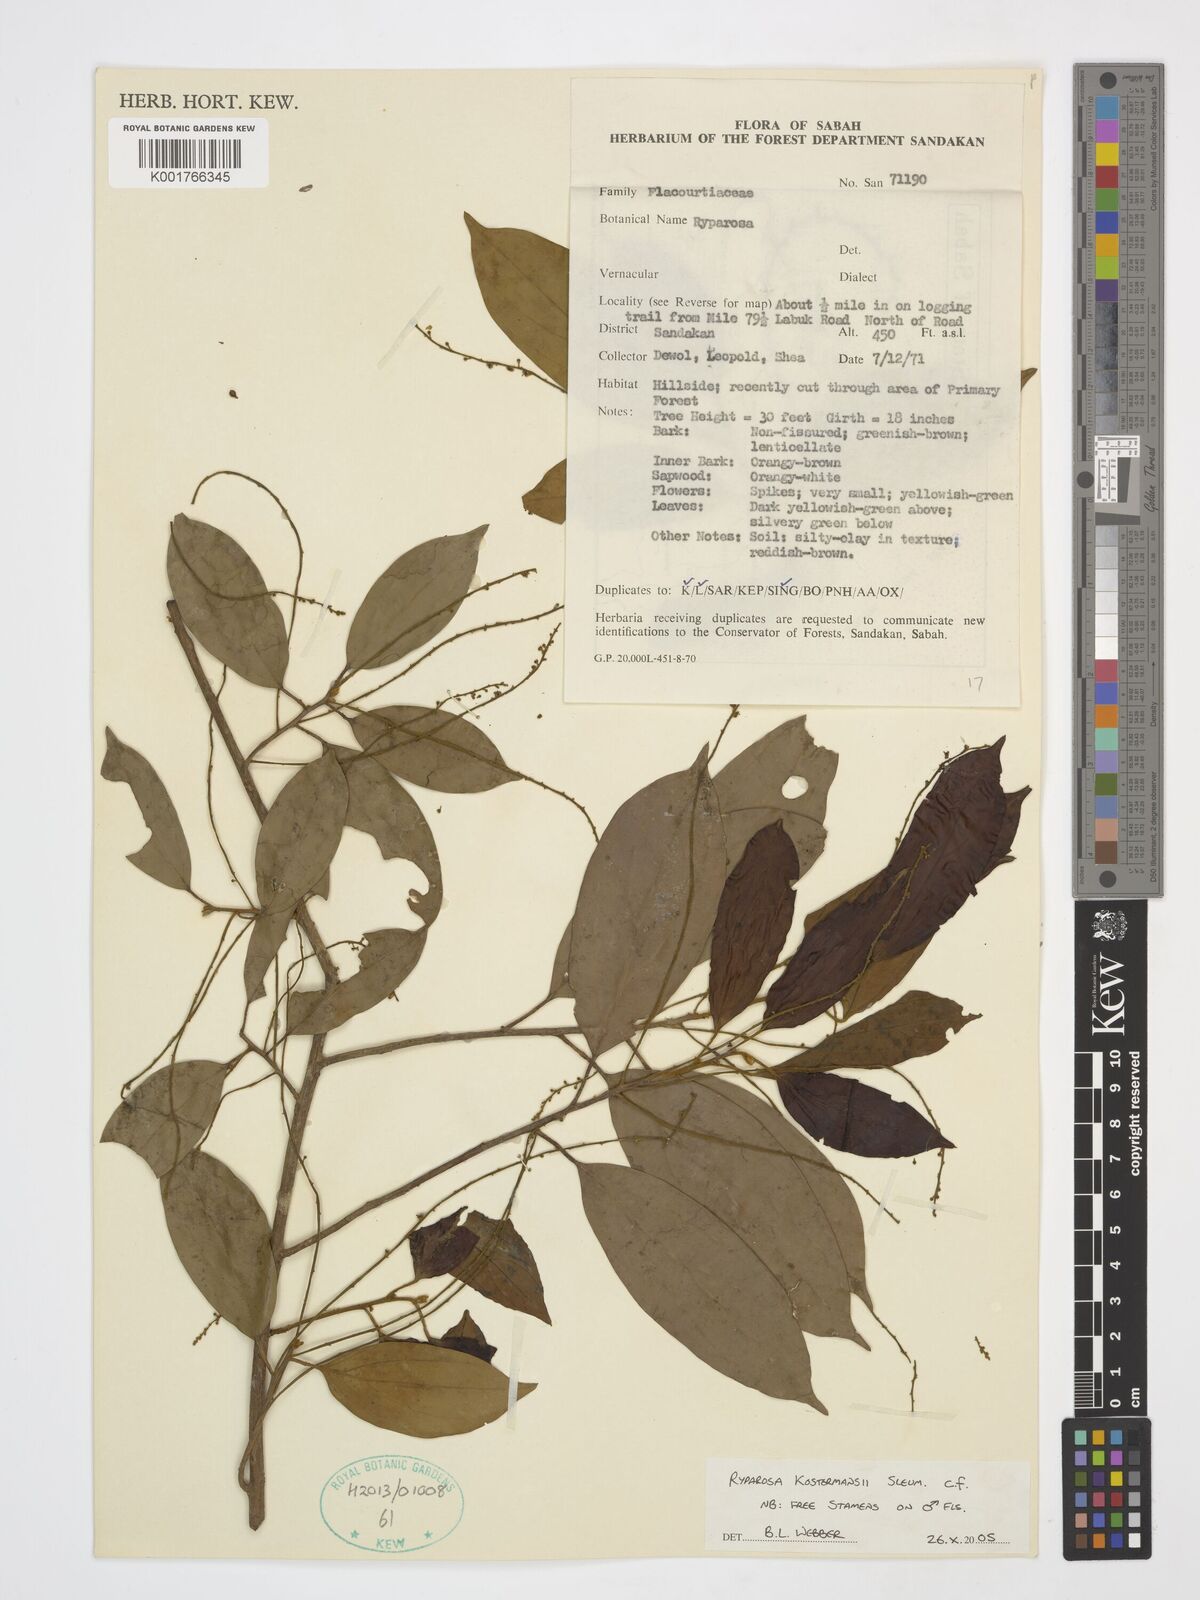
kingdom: Plantae
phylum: Tracheophyta
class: Magnoliopsida
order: Malpighiales
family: Achariaceae
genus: Ryparosa
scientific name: Ryparosa kostermansii
